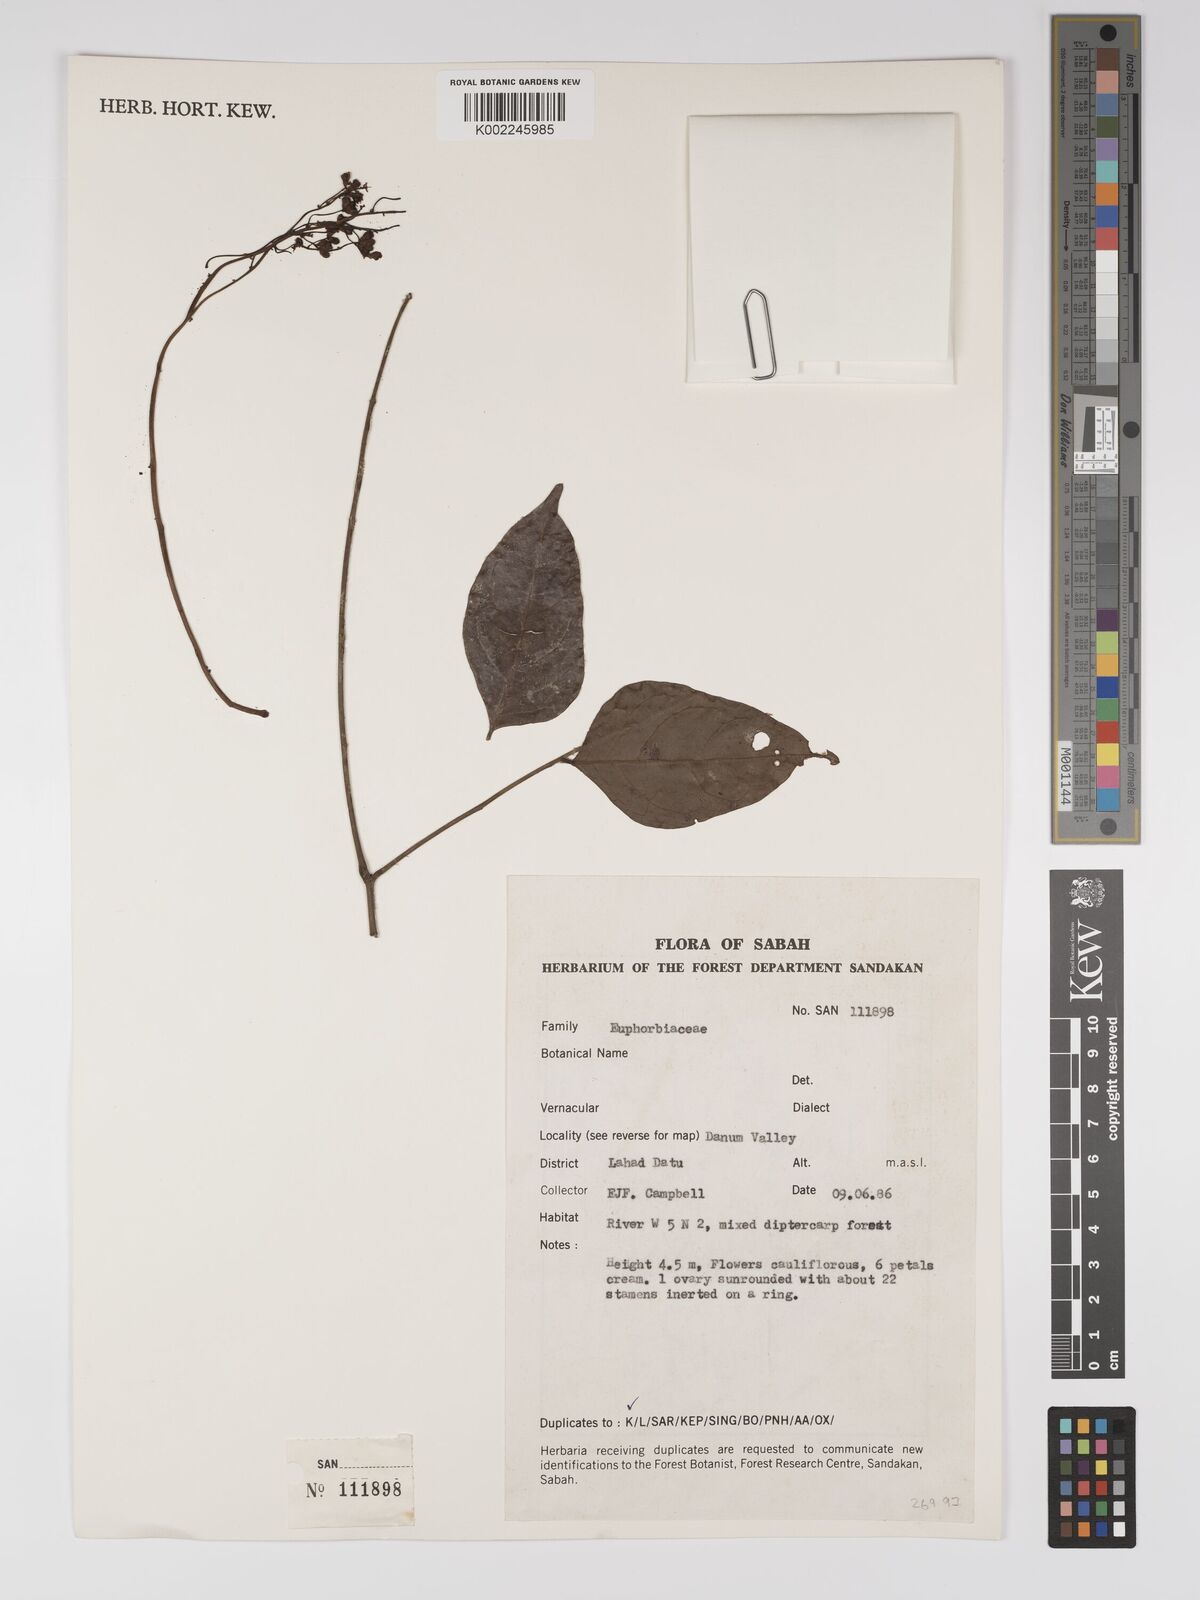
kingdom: Plantae
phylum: Tracheophyta
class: Magnoliopsida
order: Malpighiales
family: Euphorbiaceae
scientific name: Euphorbiaceae
